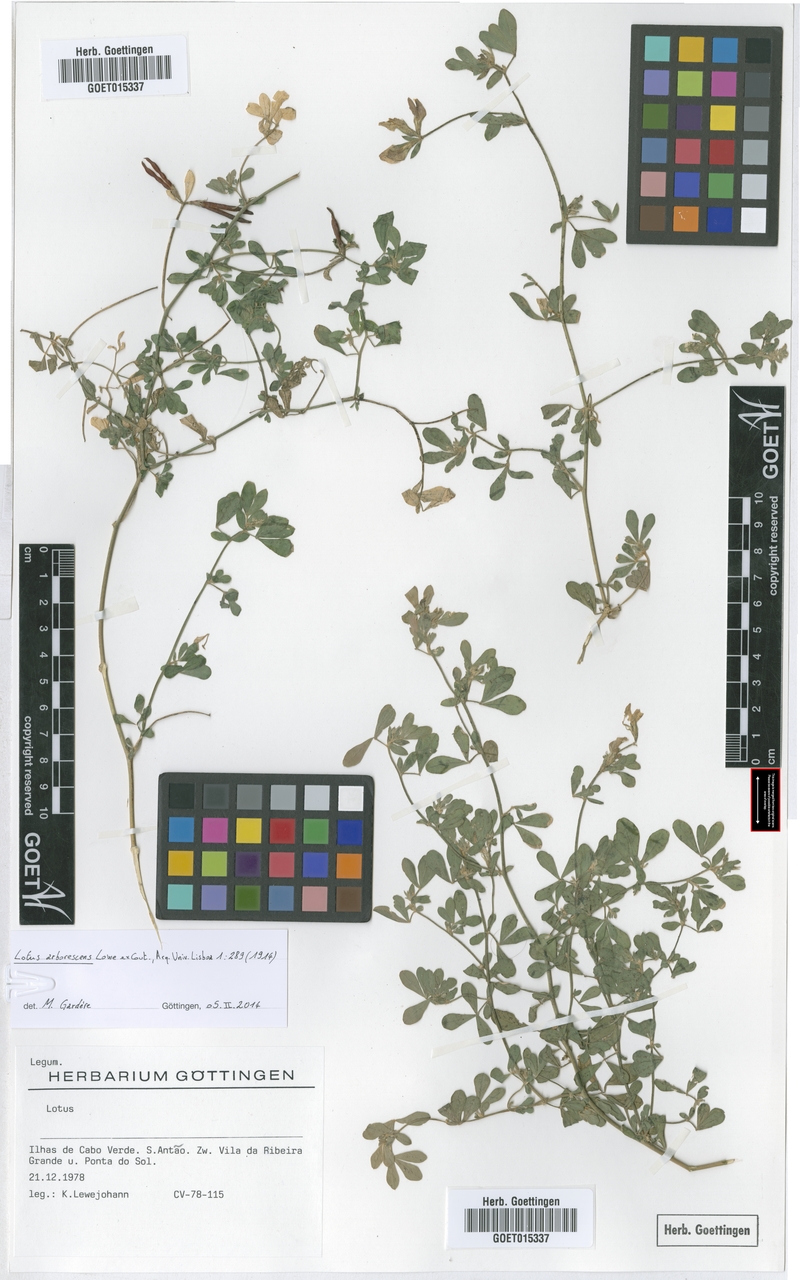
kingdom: Plantae
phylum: Tracheophyta
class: Magnoliopsida
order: Fabales
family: Fabaceae
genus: Lotus
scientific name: Lotus purpureus
